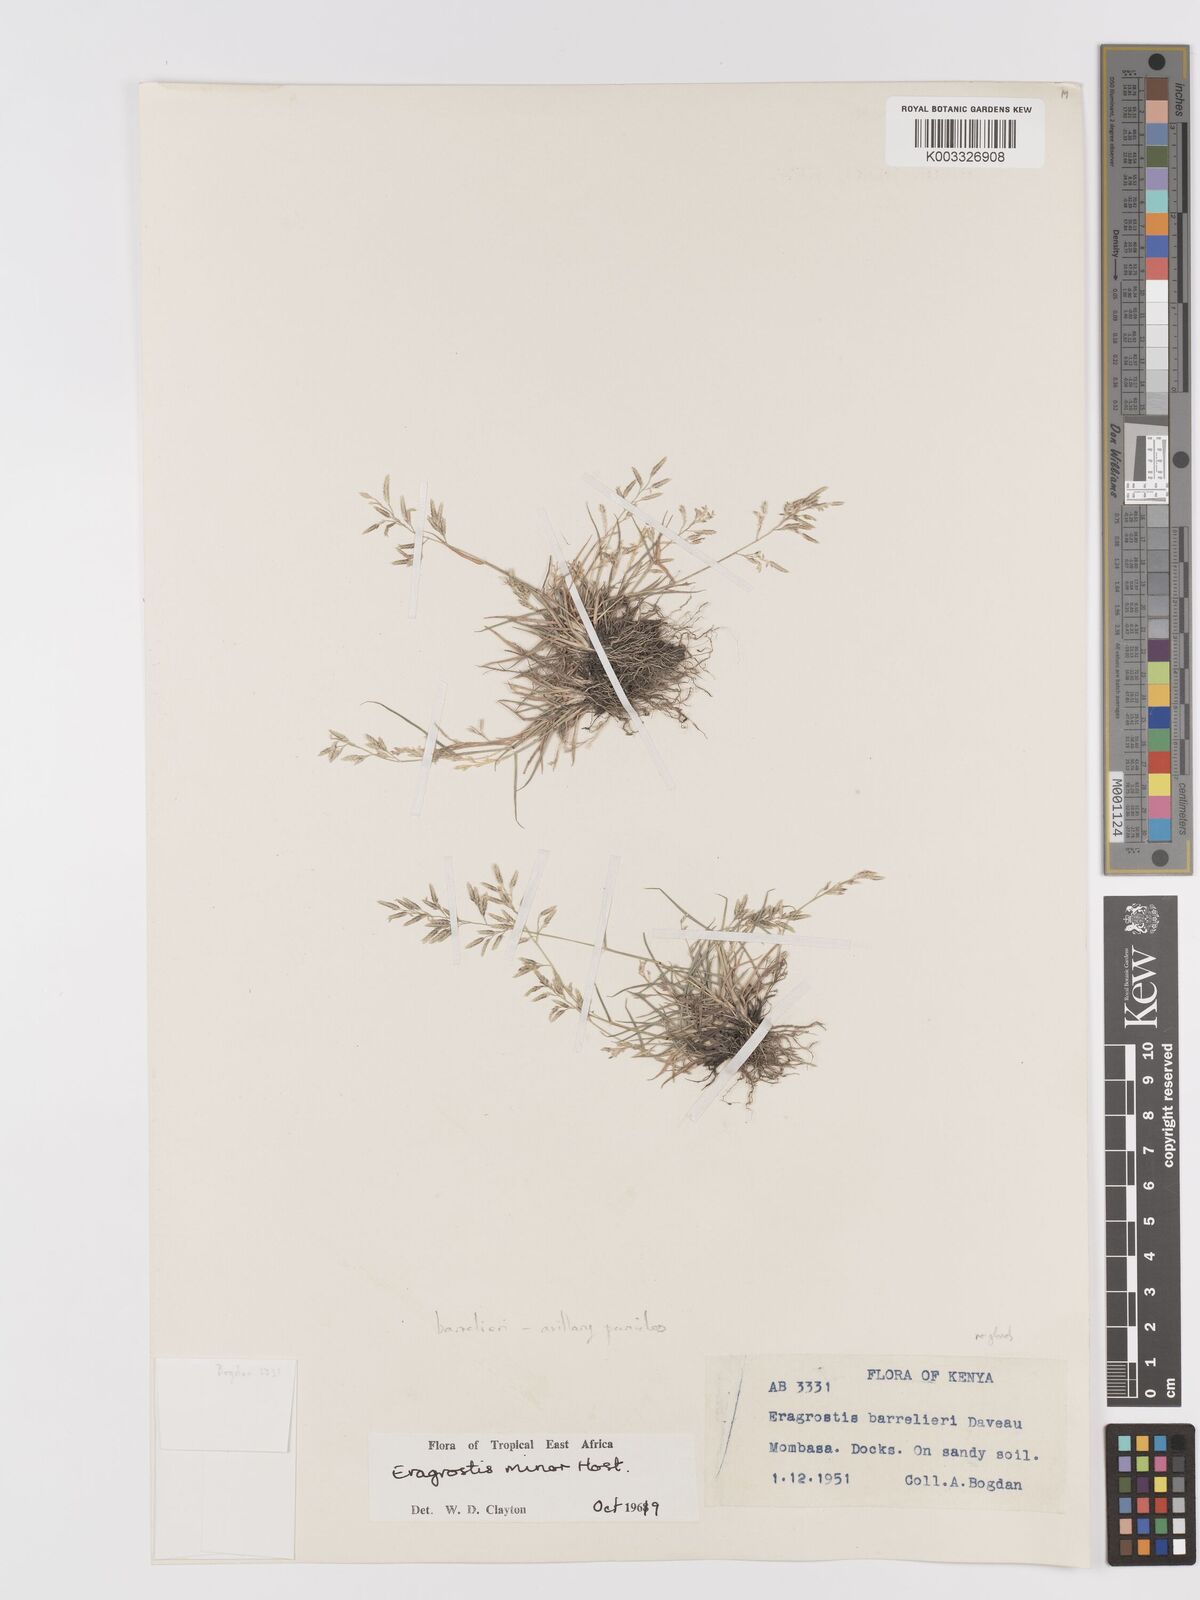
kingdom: Plantae
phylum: Tracheophyta
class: Liliopsida
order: Poales
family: Poaceae
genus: Eragrostis
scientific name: Eragrostis minor
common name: Small love-grass
